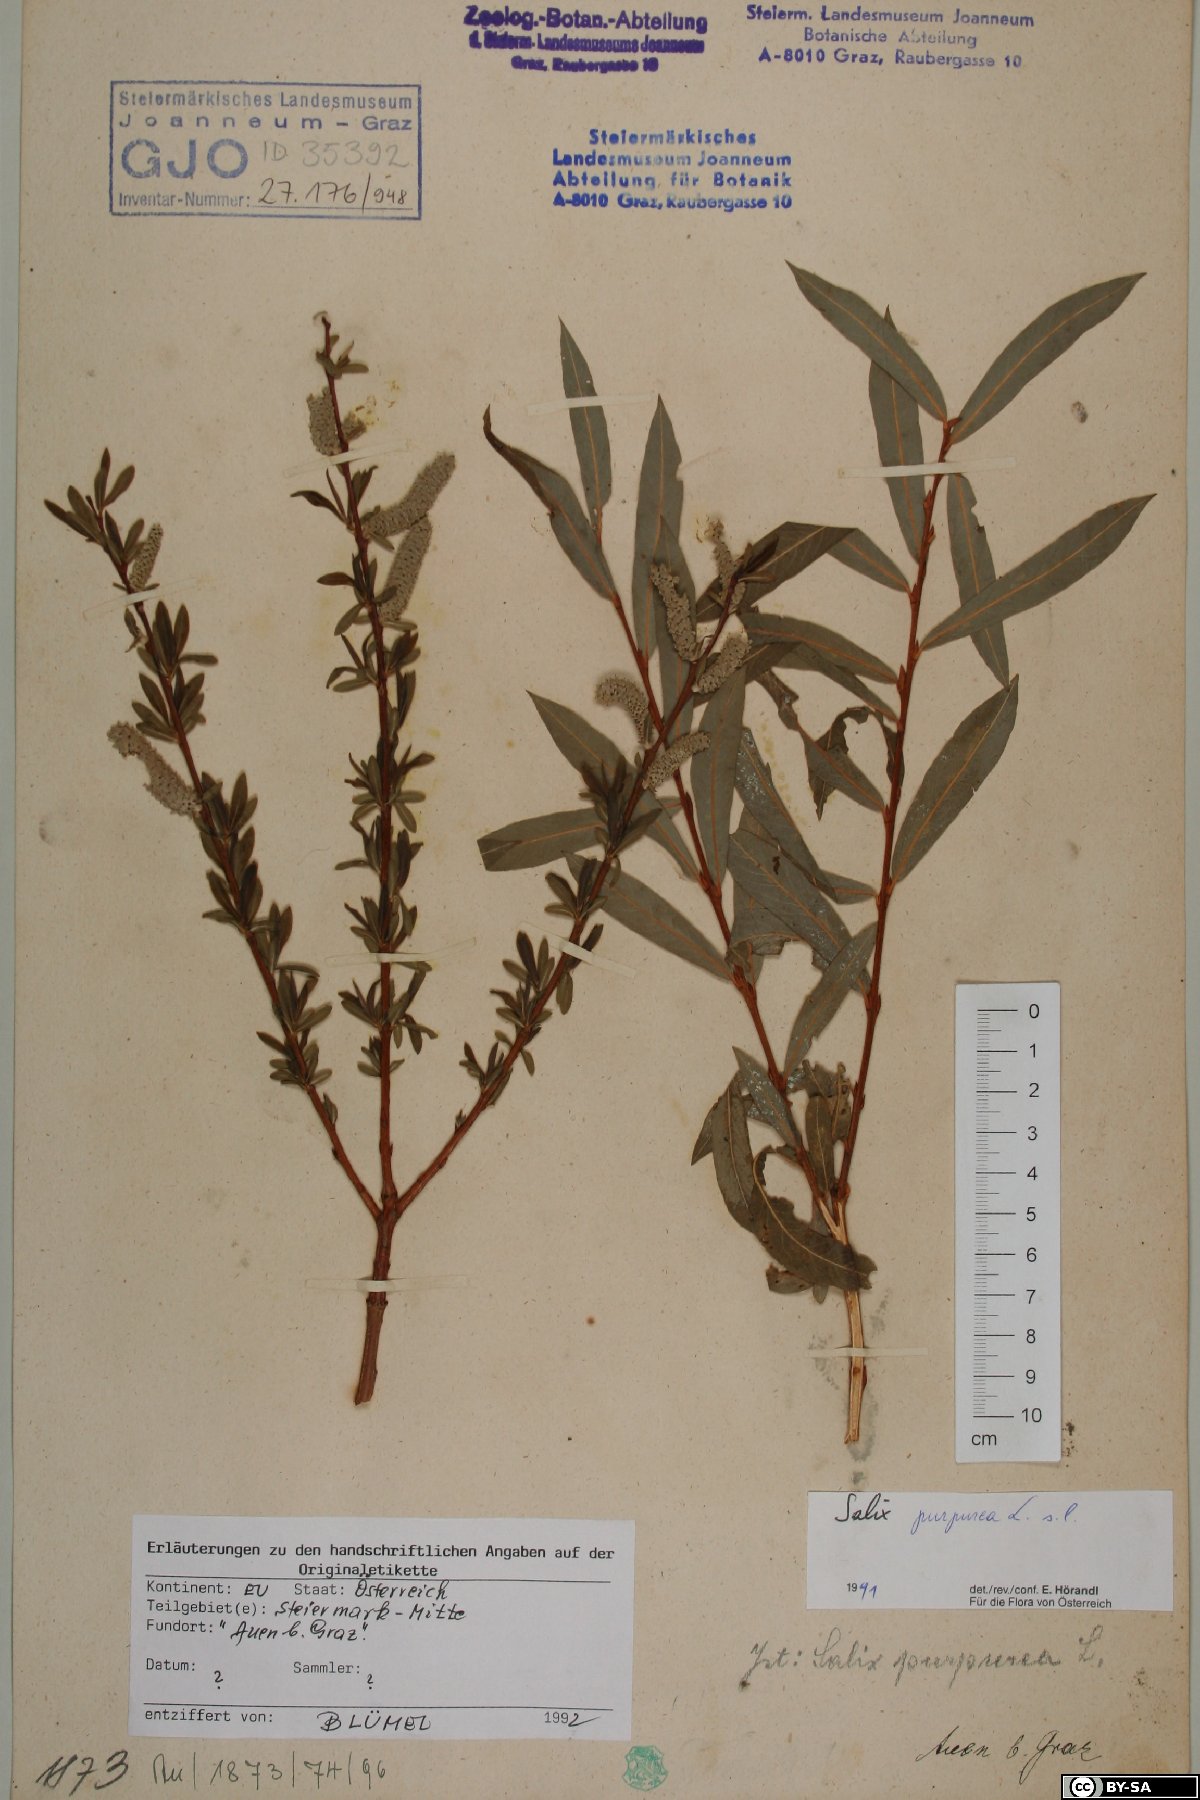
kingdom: Plantae
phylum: Tracheophyta
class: Magnoliopsida
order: Malpighiales
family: Salicaceae
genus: Salix
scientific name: Salix purpurea
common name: Purple willow
